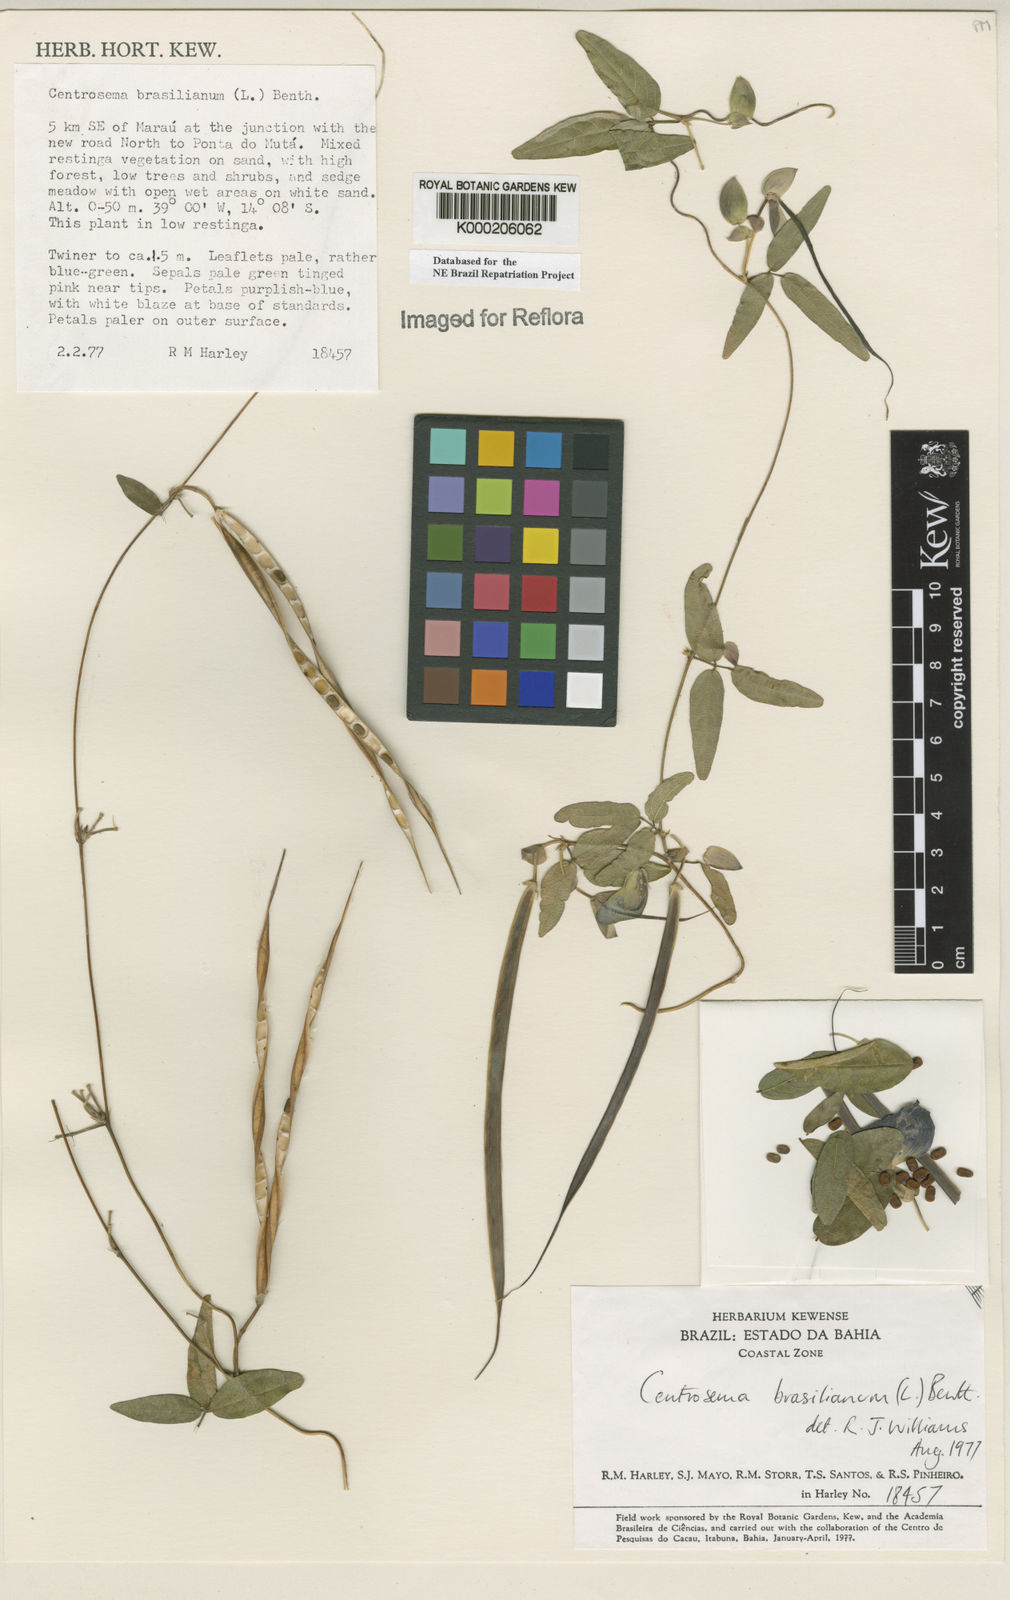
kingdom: Plantae
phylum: Tracheophyta
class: Magnoliopsida
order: Fabales
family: Fabaceae
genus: Centrosema
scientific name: Centrosema brasilianum
